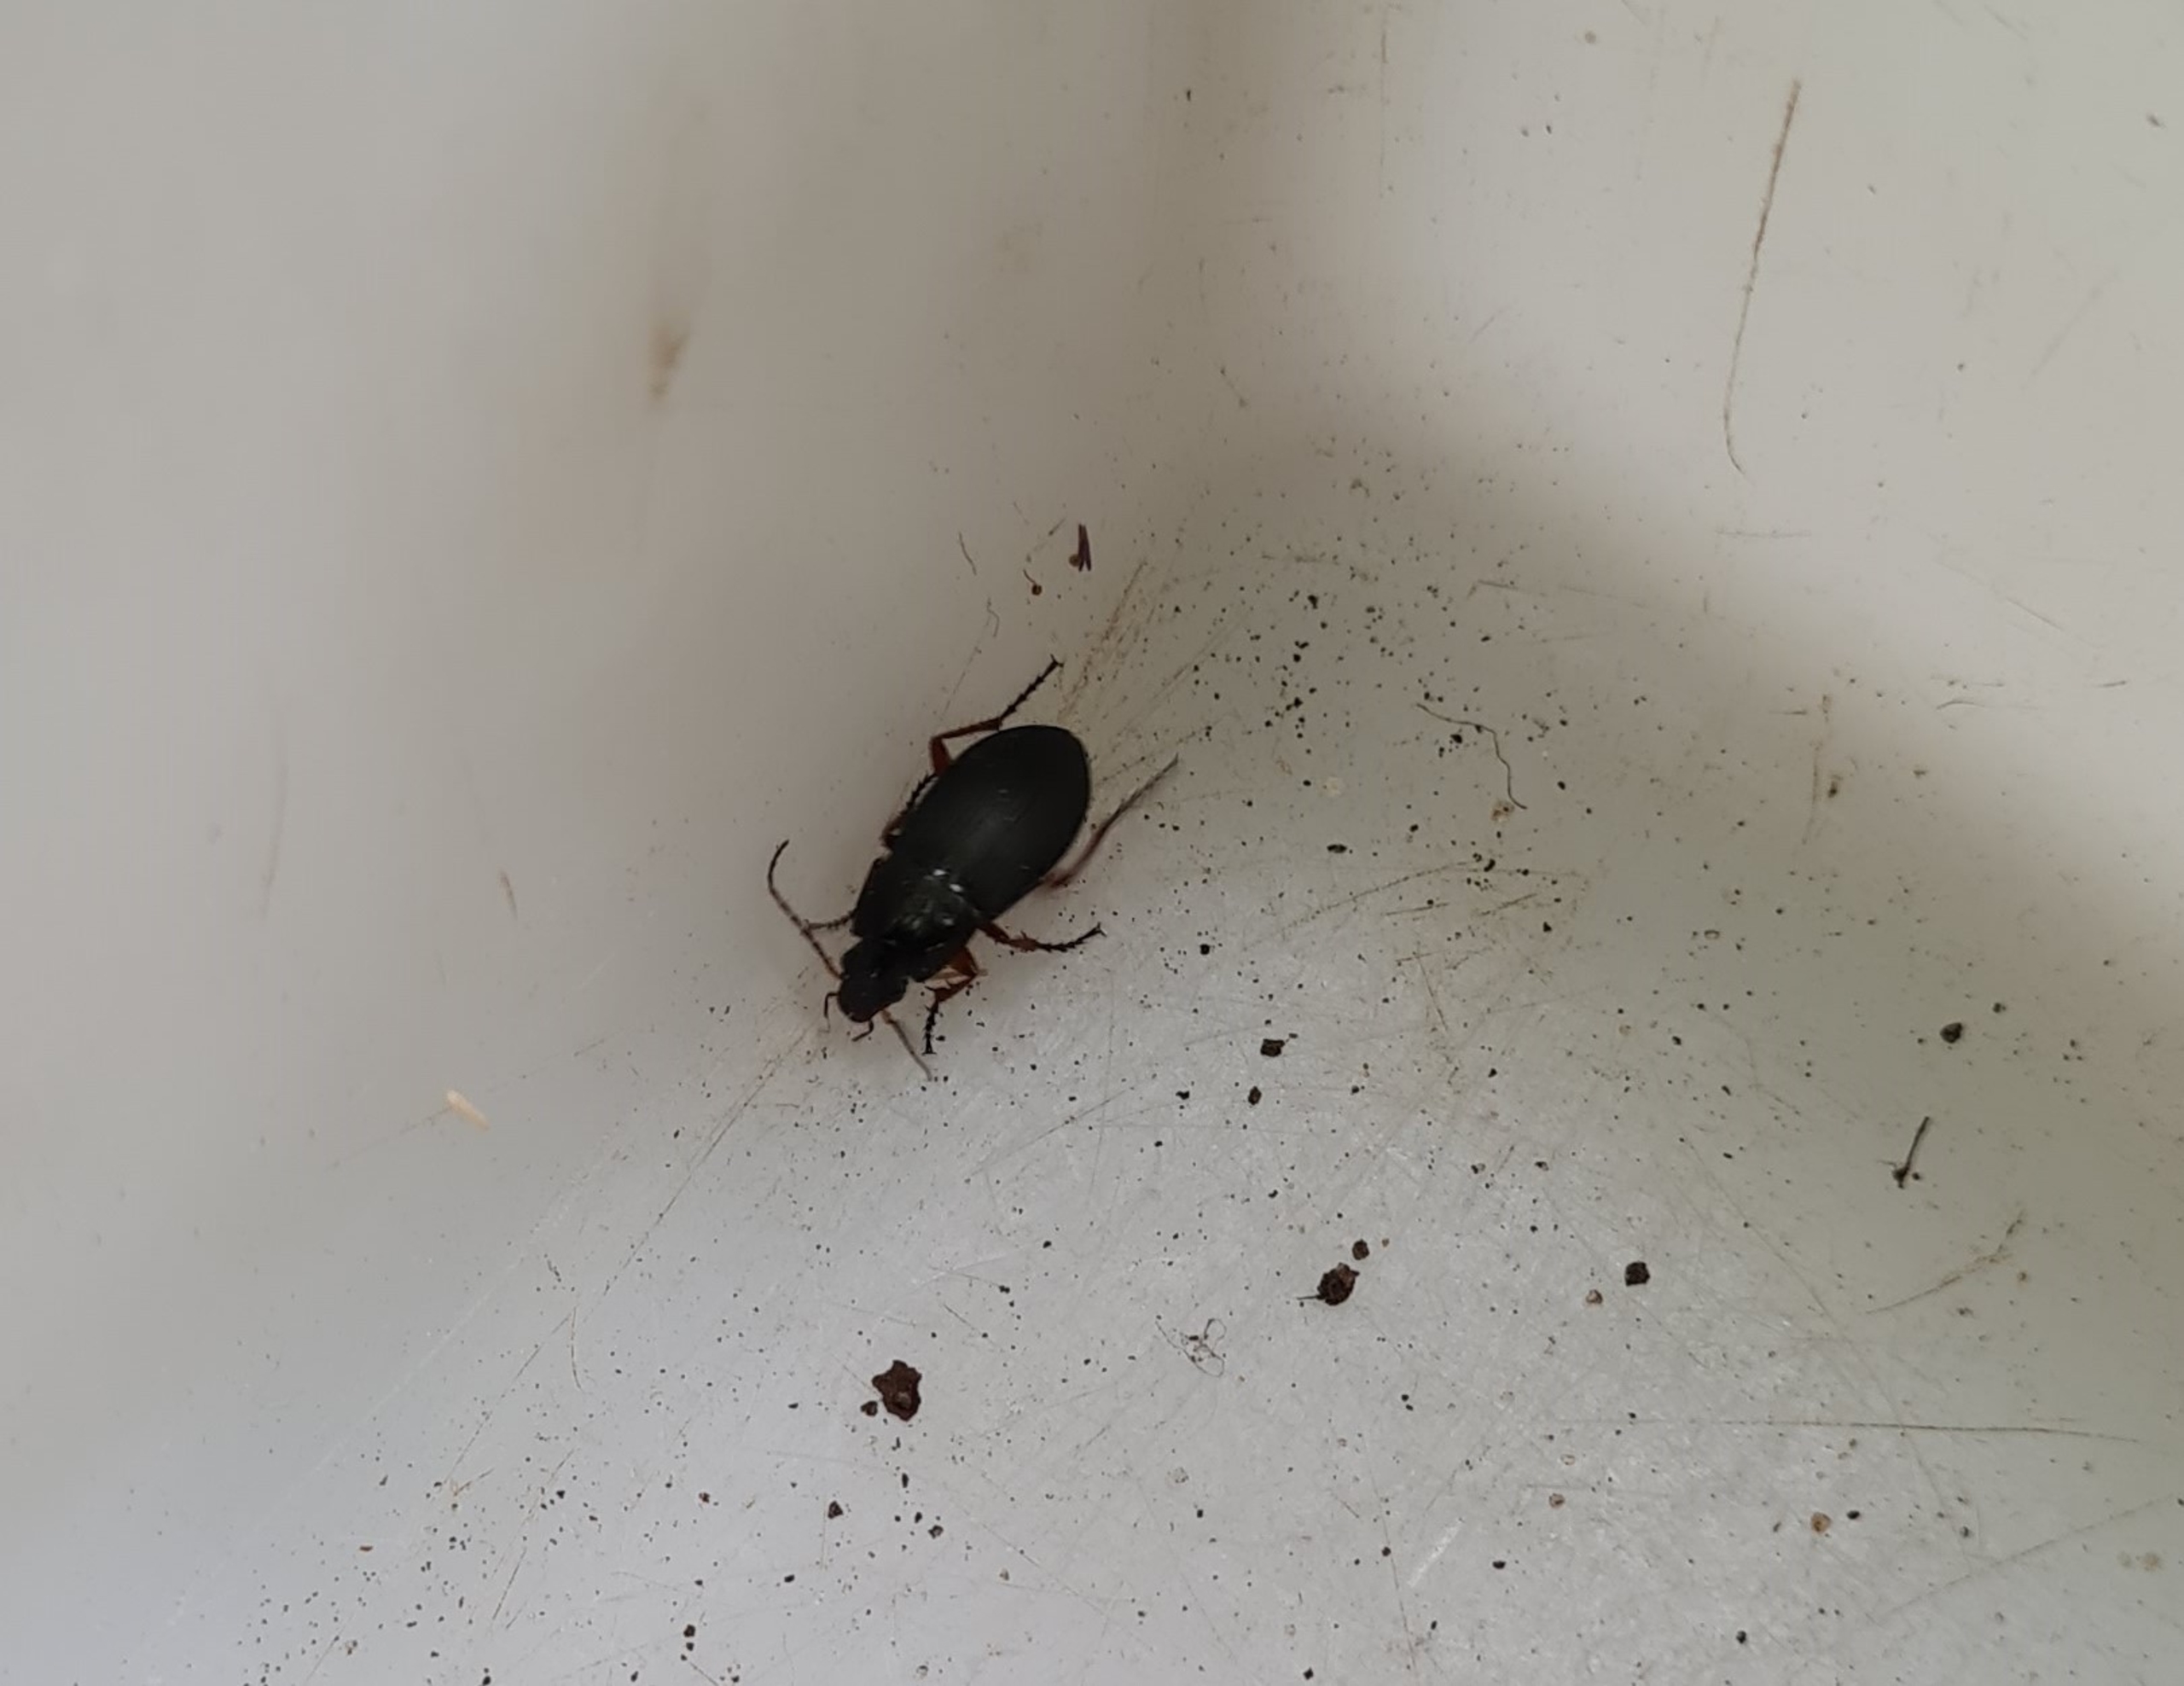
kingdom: Animalia
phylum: Arthropoda
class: Insecta
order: Coleoptera
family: Carabidae
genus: Calathus
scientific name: Calathus fuscipes
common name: Stor torpedoløber
